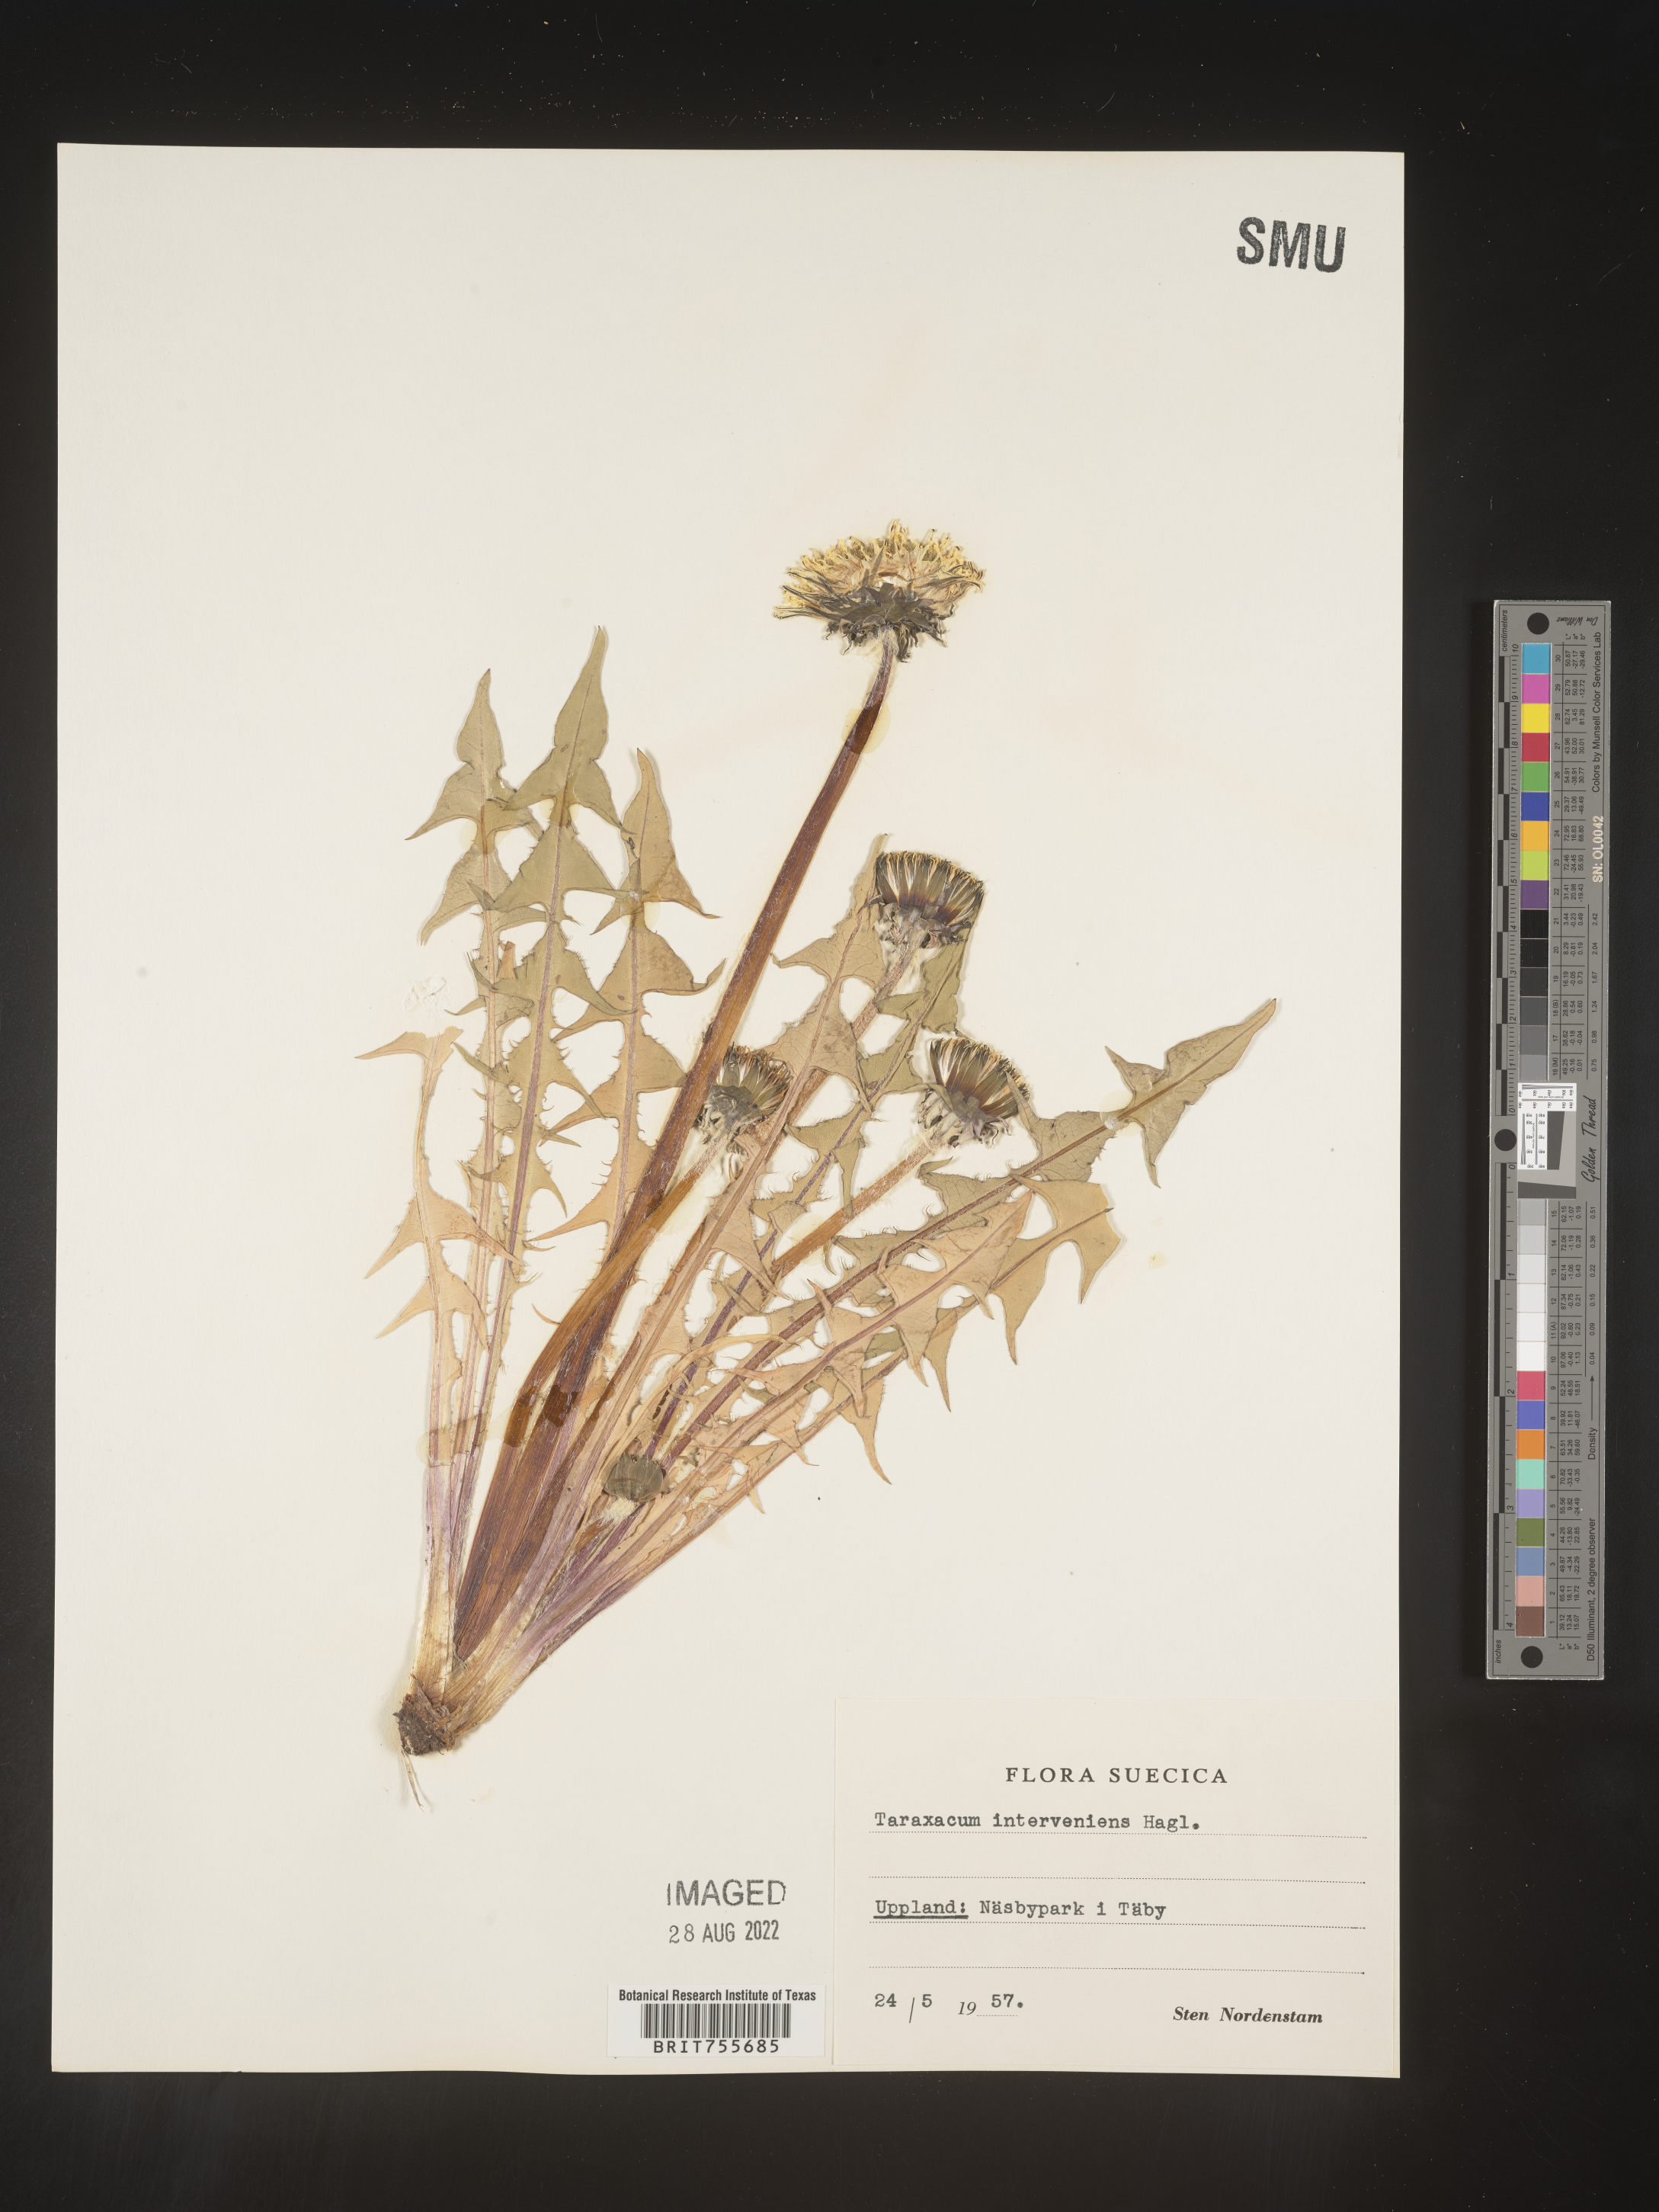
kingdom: Plantae
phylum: Tracheophyta
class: Magnoliopsida
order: Asterales
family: Asteraceae
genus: Taraxacum
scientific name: Taraxacum
